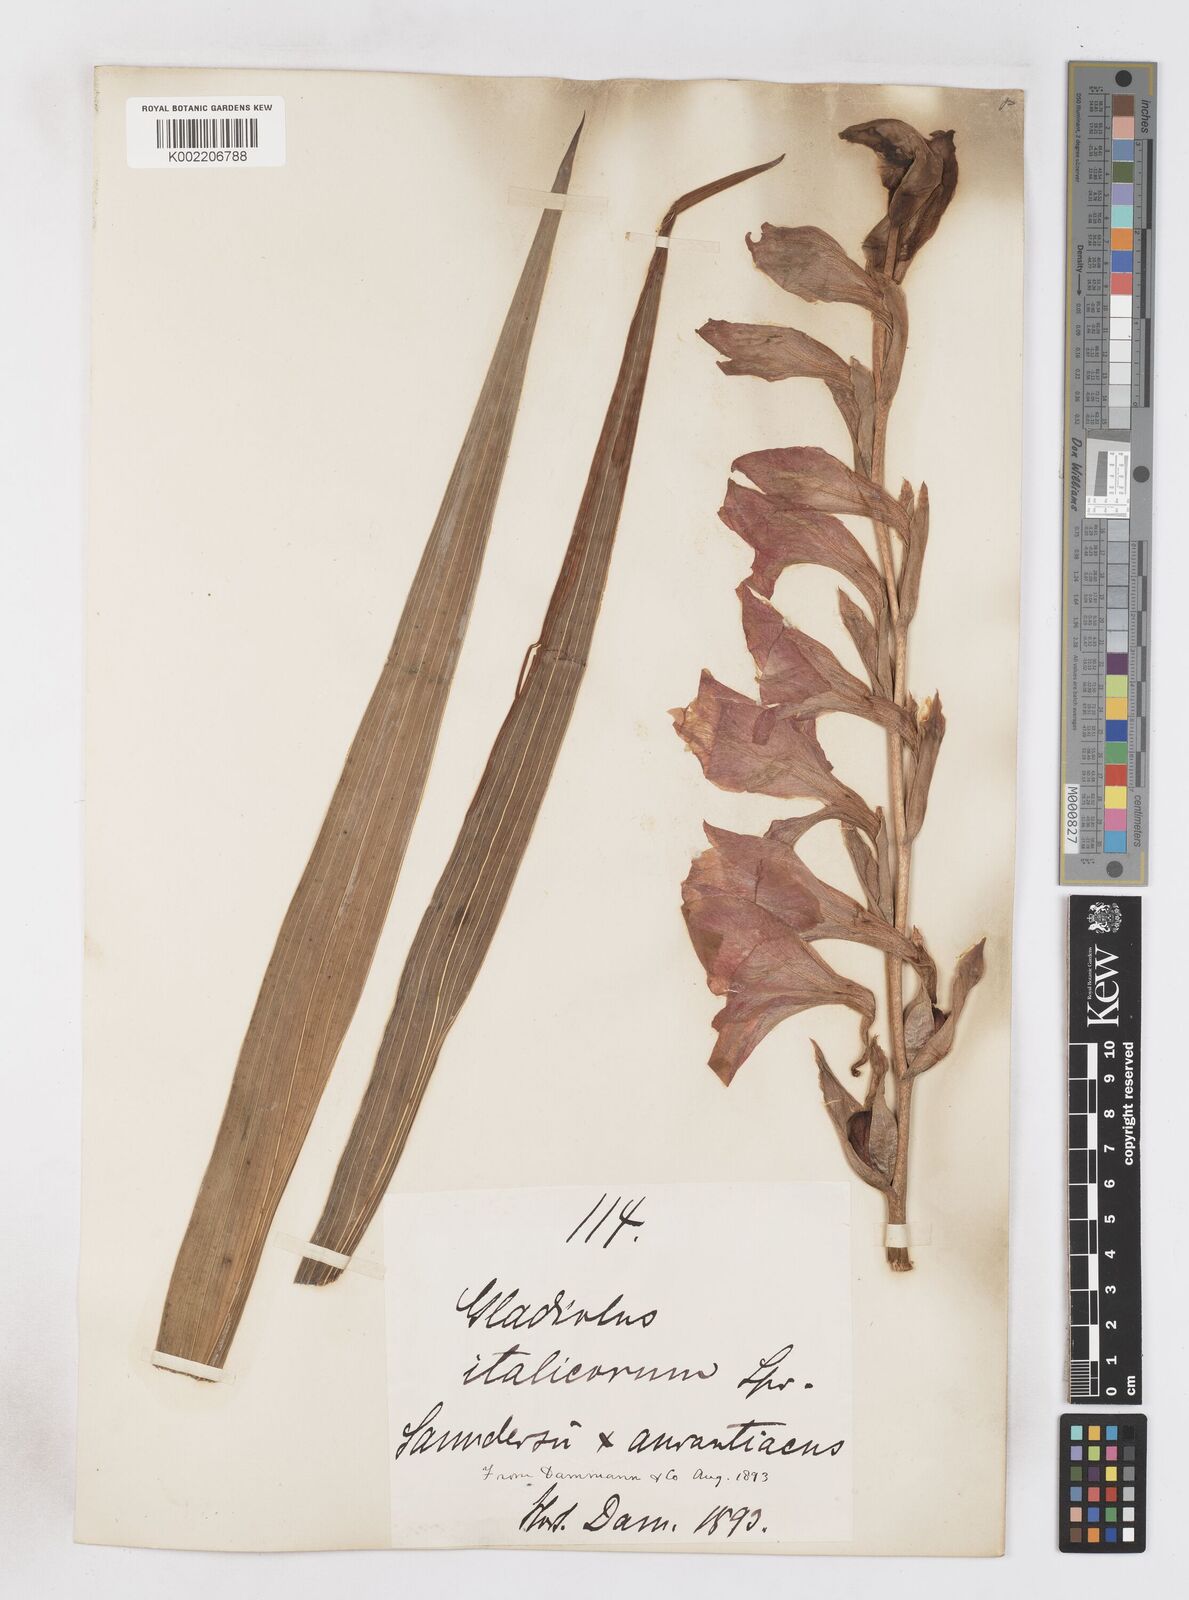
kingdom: Plantae
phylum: Tracheophyta
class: Liliopsida
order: Asparagales
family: Iridaceae
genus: Gladiolus
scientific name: Gladiolus saundersii
